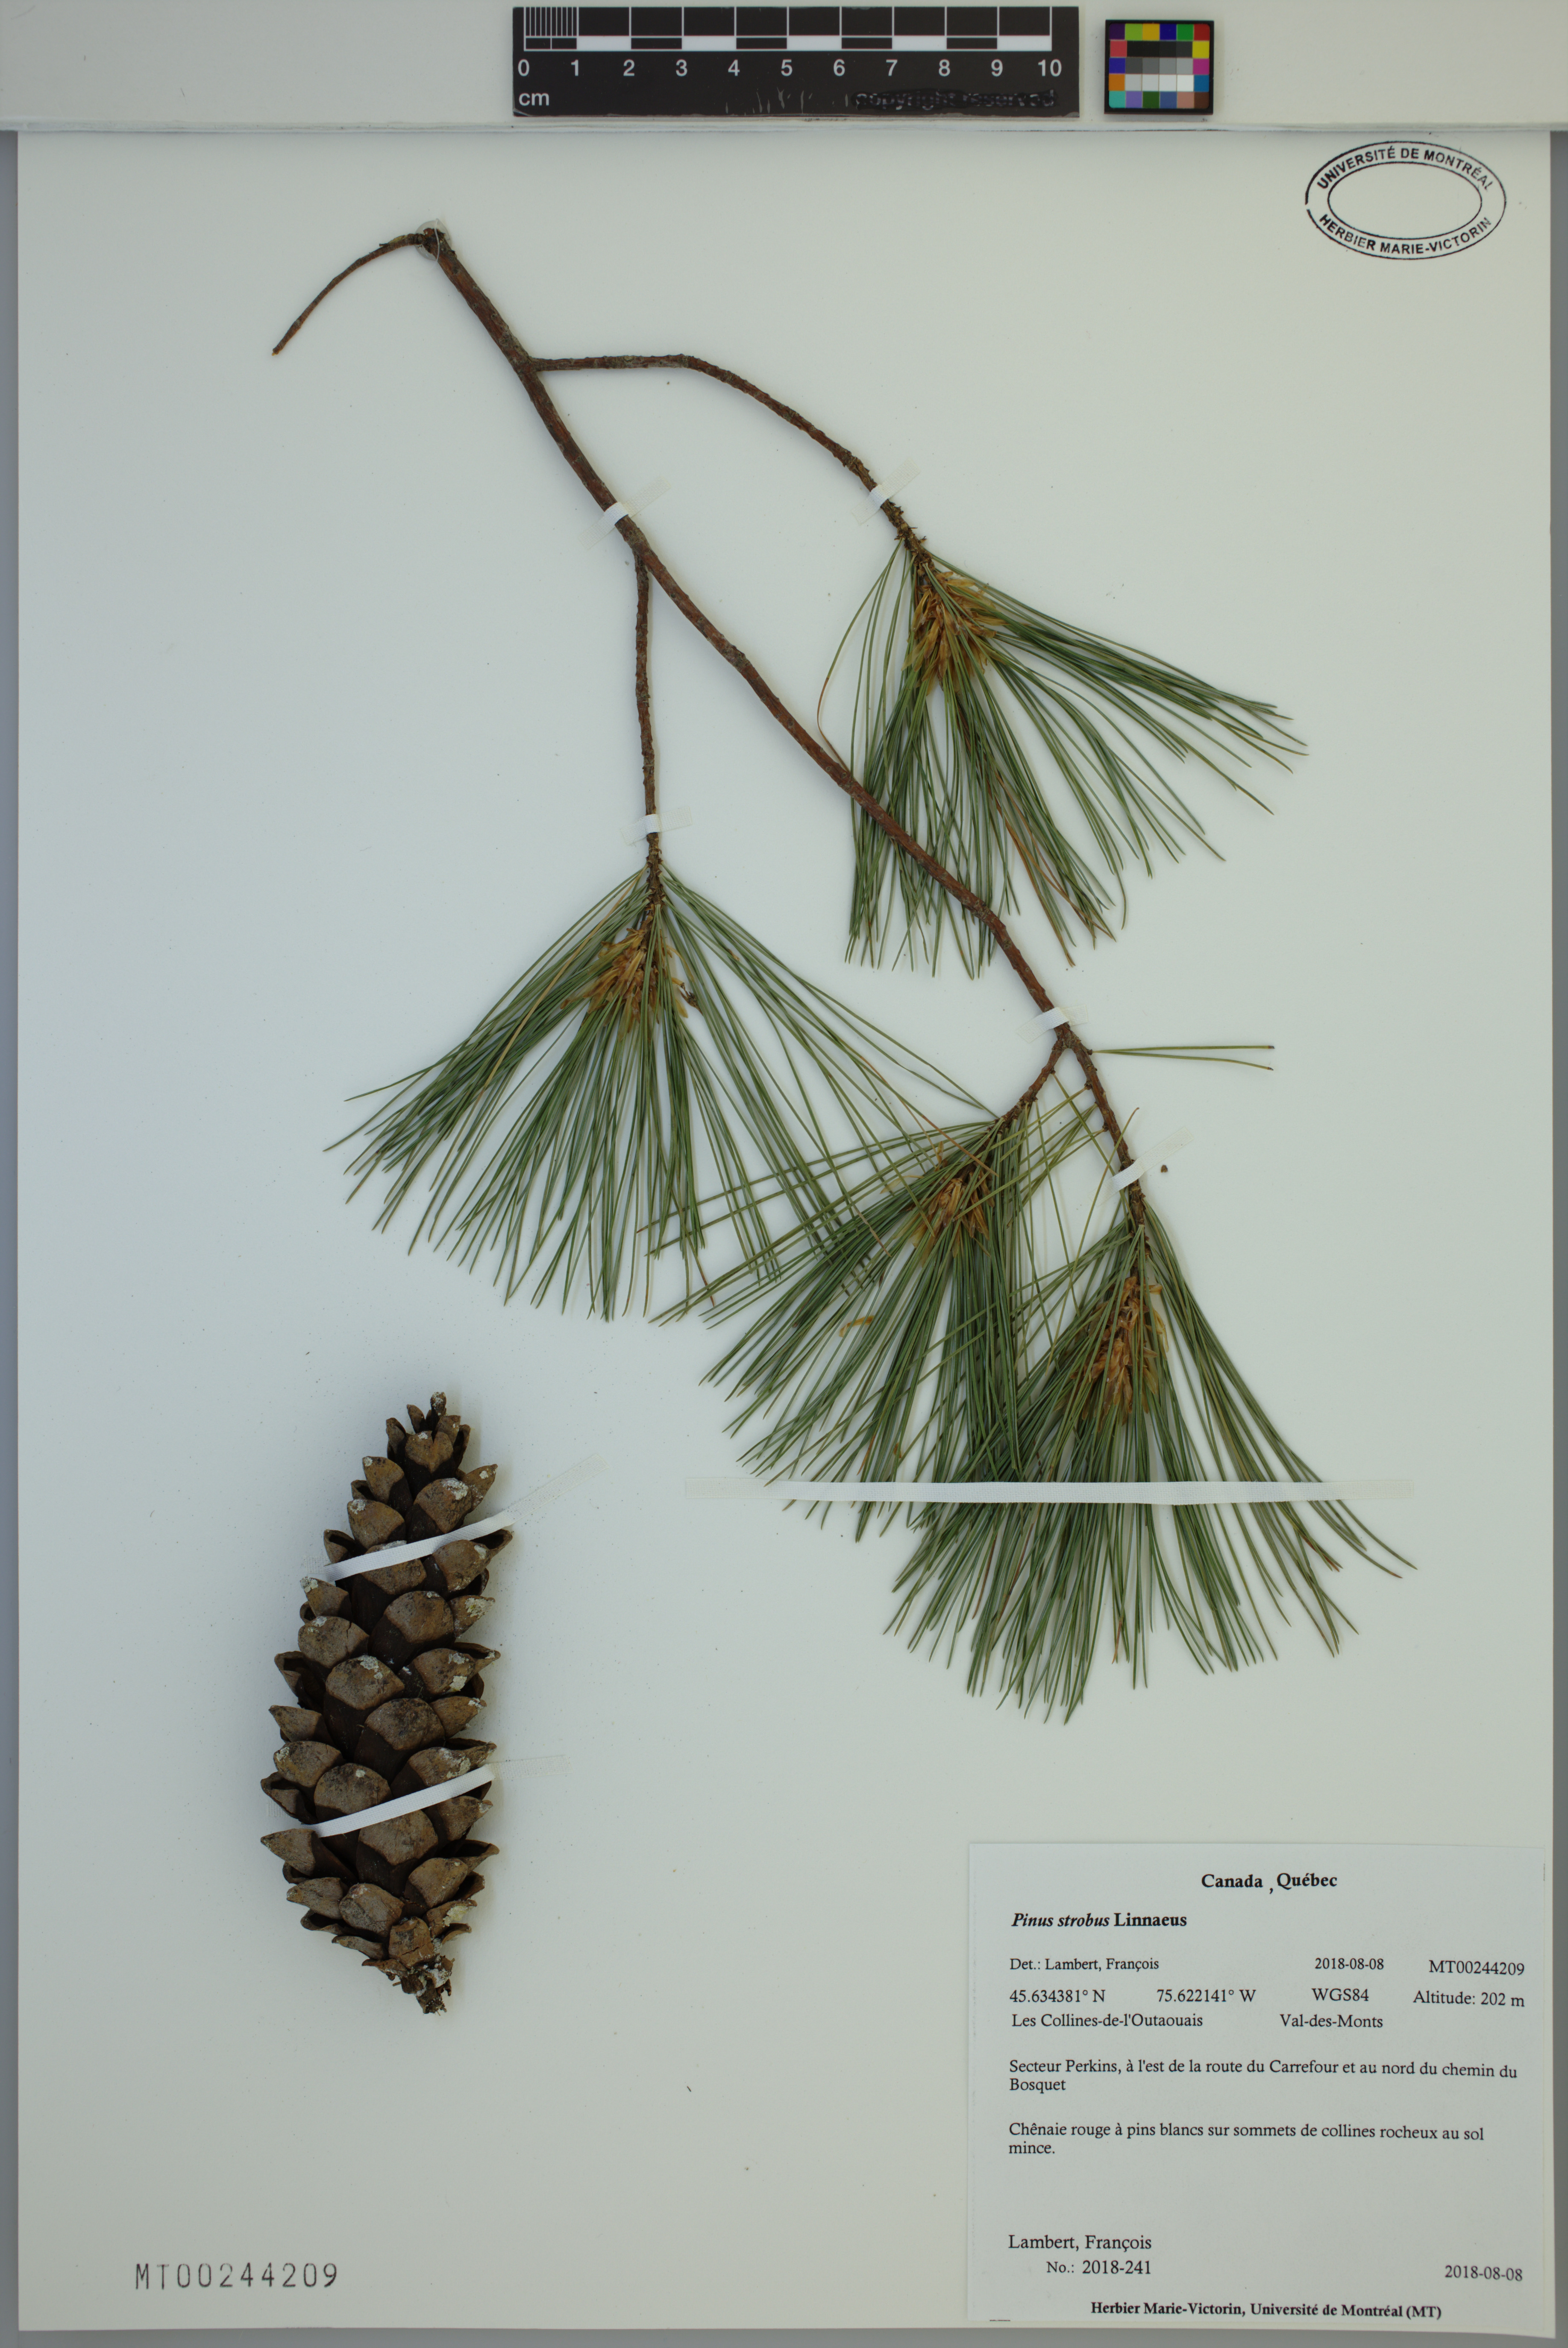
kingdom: Plantae
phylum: Tracheophyta
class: Pinopsida
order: Pinales
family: Pinaceae
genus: Pinus
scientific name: Pinus strobus
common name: Weymouth pine
